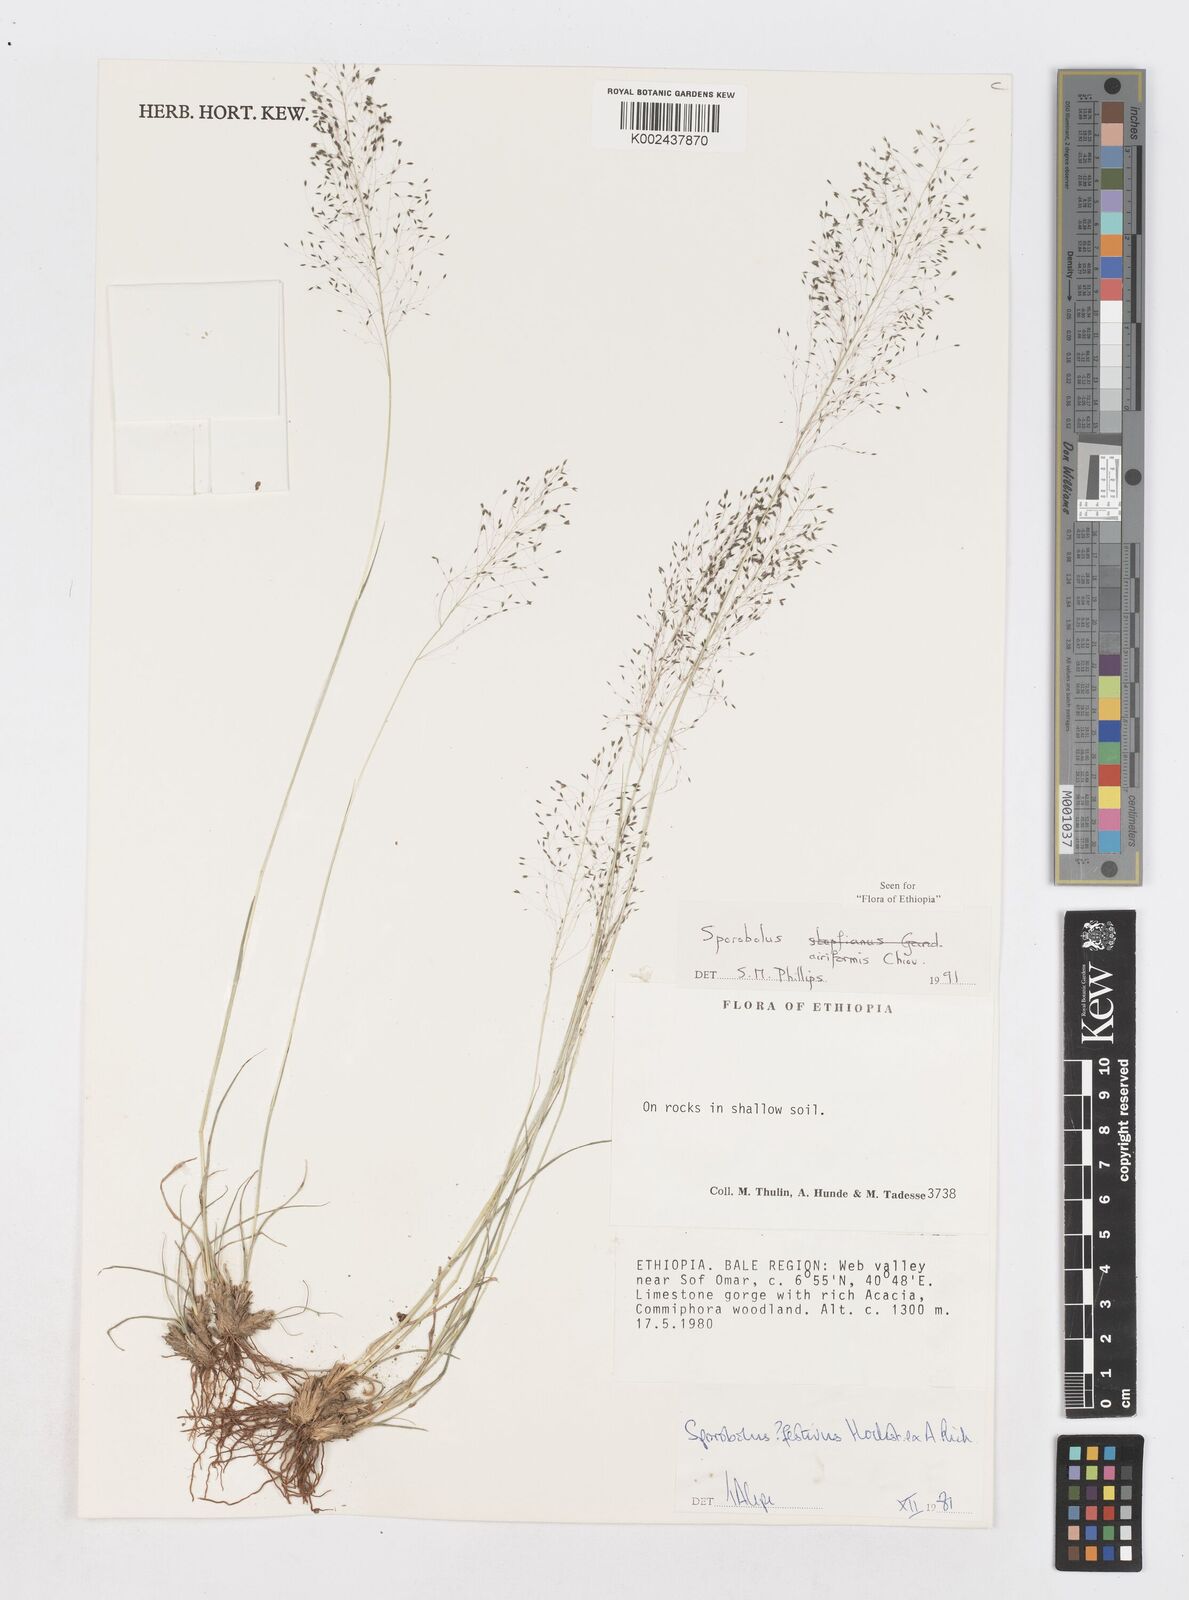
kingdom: Plantae
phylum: Tracheophyta
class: Liliopsida
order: Poales
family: Poaceae
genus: Sporobolus
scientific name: Sporobolus airiformis
